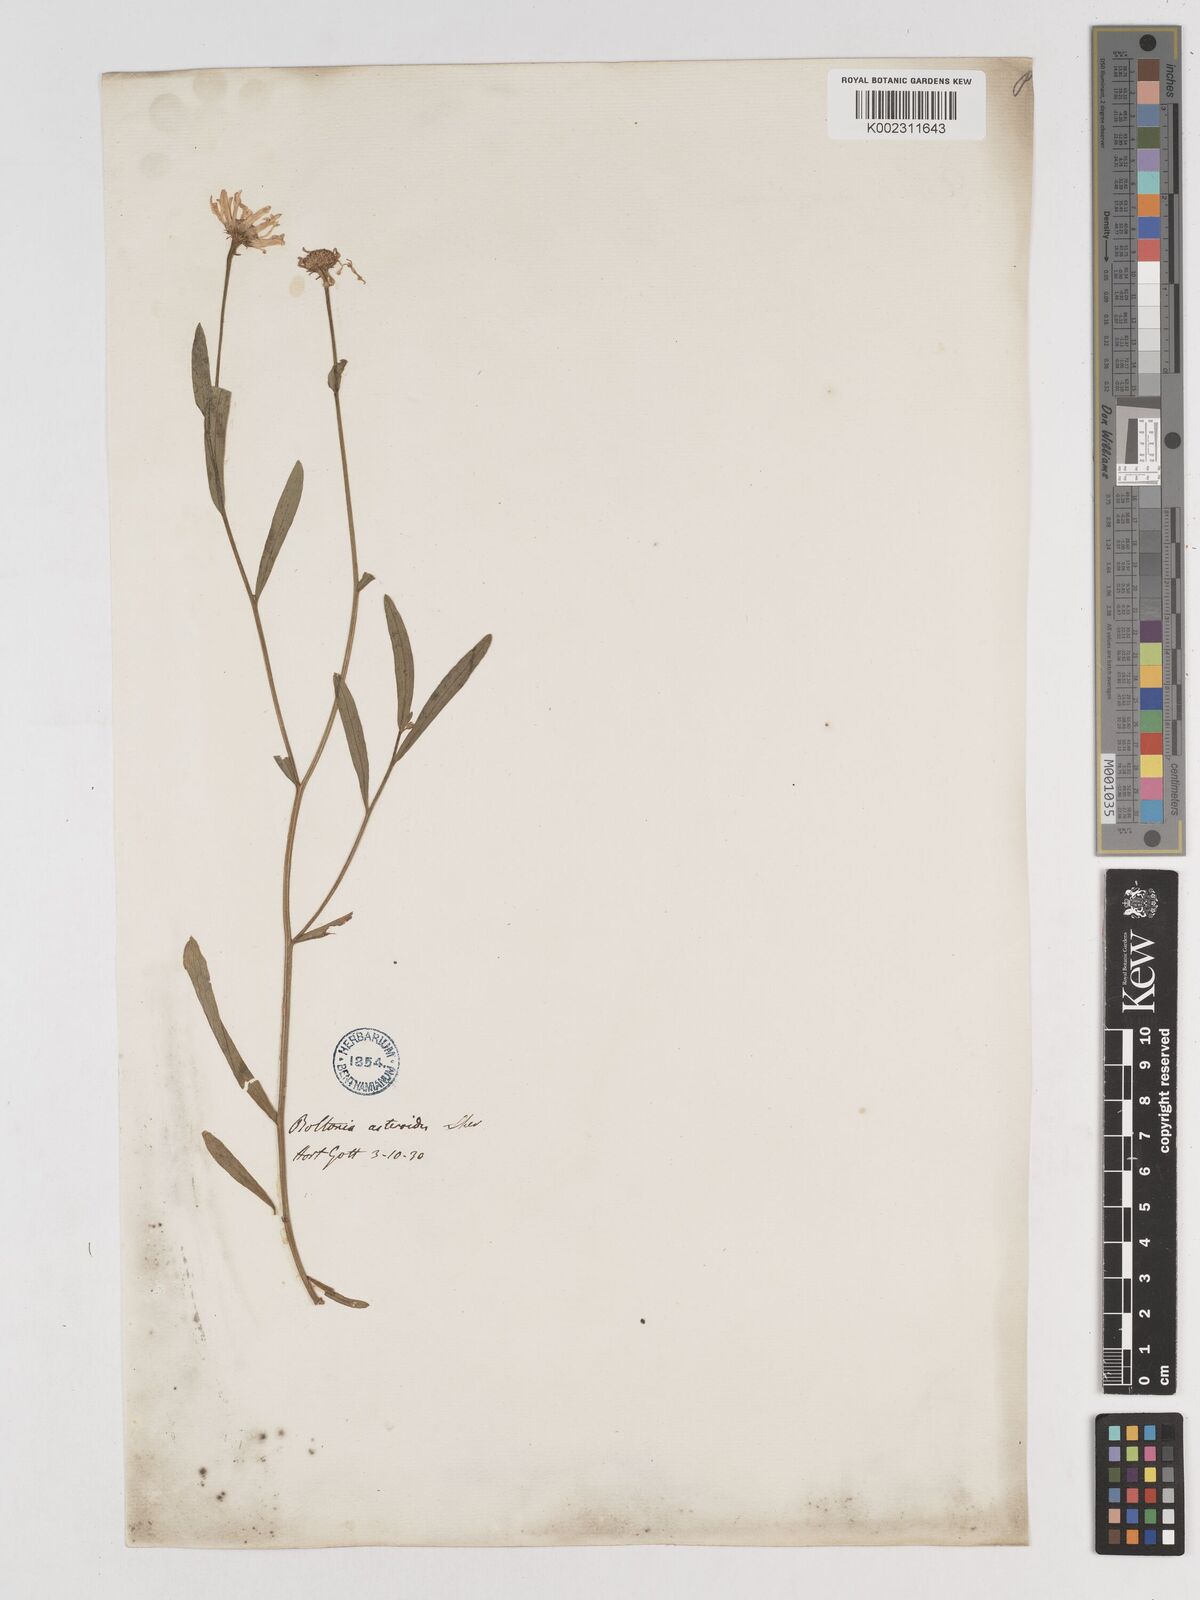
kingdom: Plantae
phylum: Tracheophyta
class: Magnoliopsida
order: Asterales
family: Asteraceae
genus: Boltonia
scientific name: Boltonia diffusa
